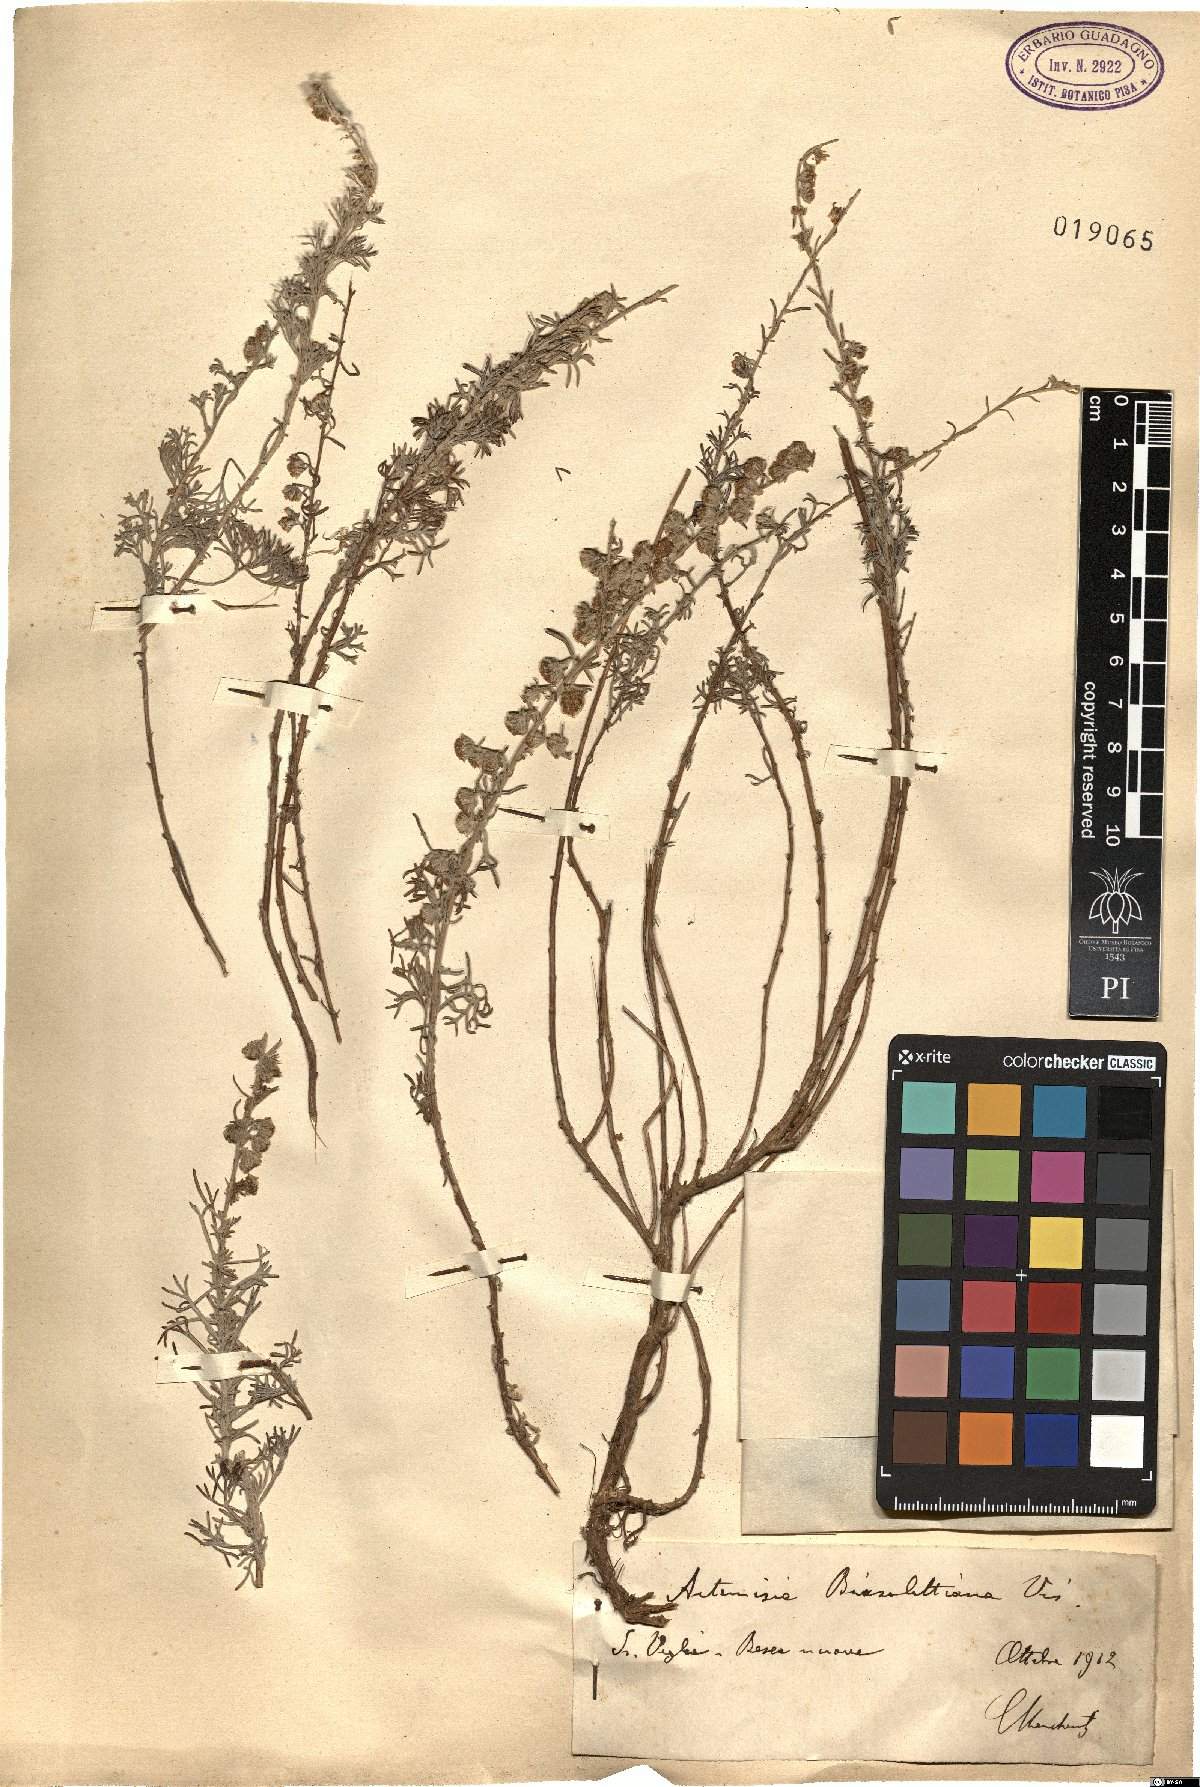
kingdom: Plantae
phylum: Tracheophyta
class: Magnoliopsida
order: Asterales
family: Asteraceae
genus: Artemisia
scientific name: Artemisia alba
